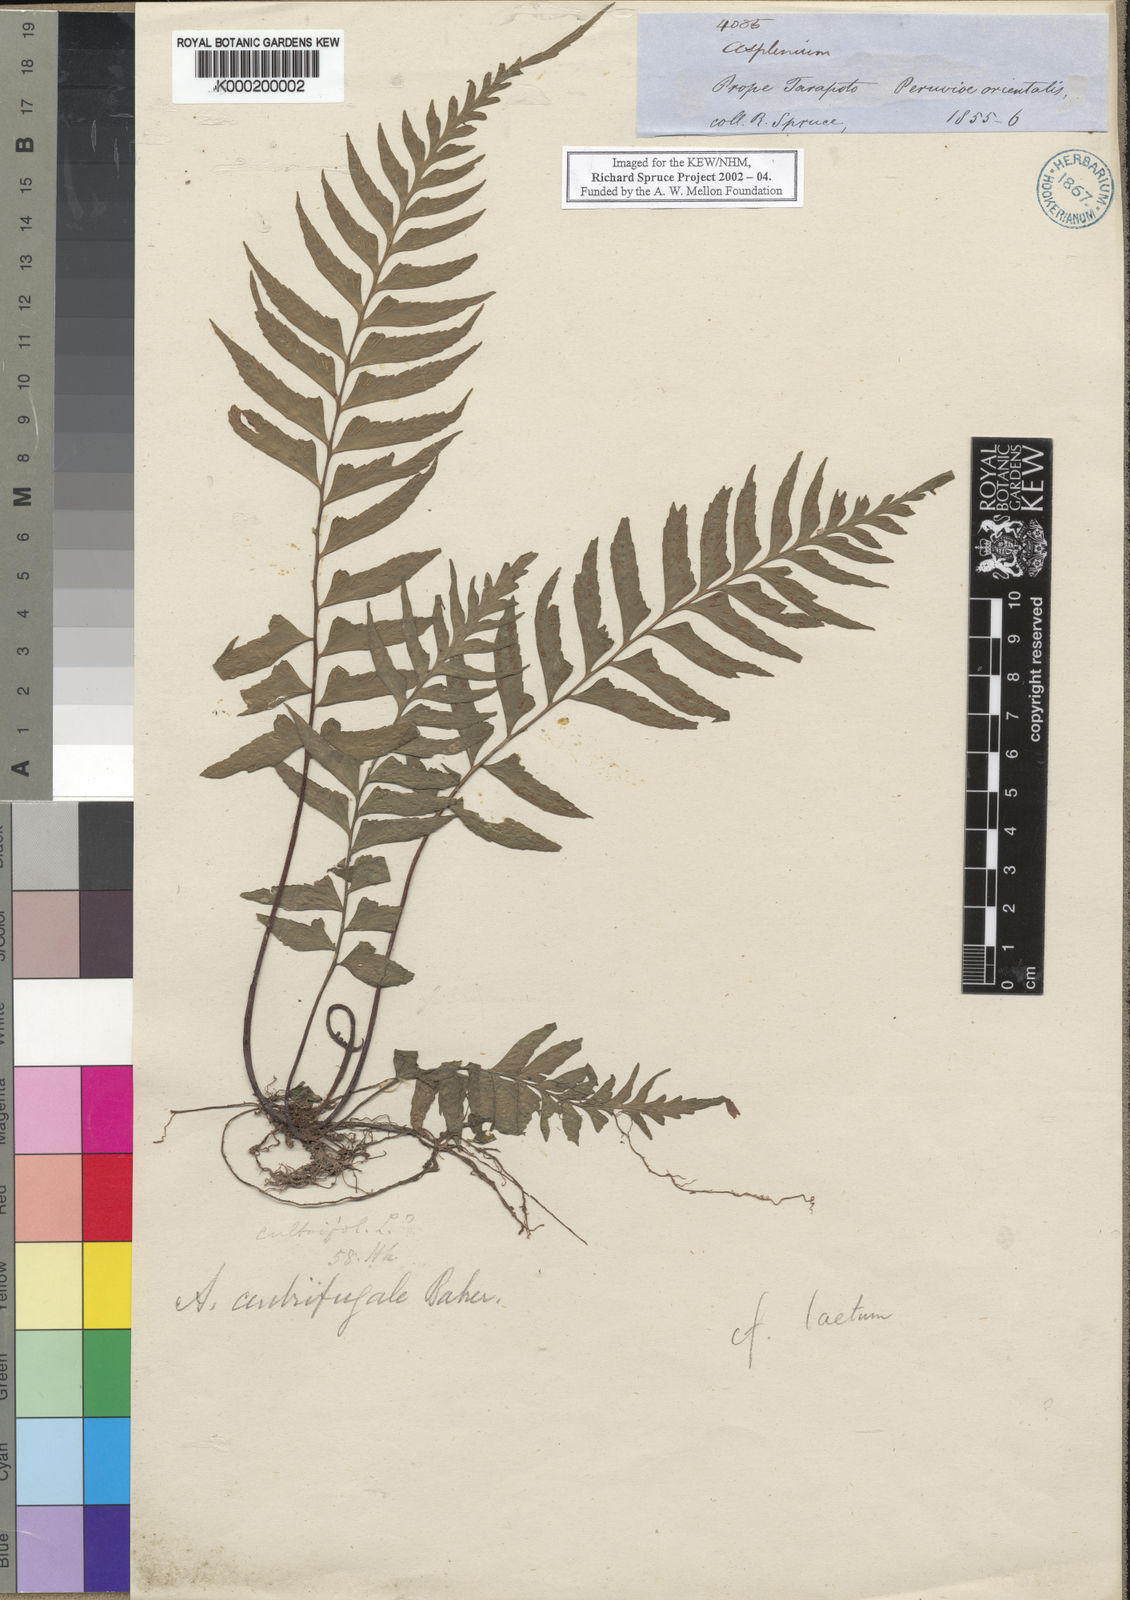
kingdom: Plantae
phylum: Tracheophyta
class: Polypodiopsida
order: Polypodiales
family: Aspleniaceae
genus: Asplenium
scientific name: Asplenium centrifugale
